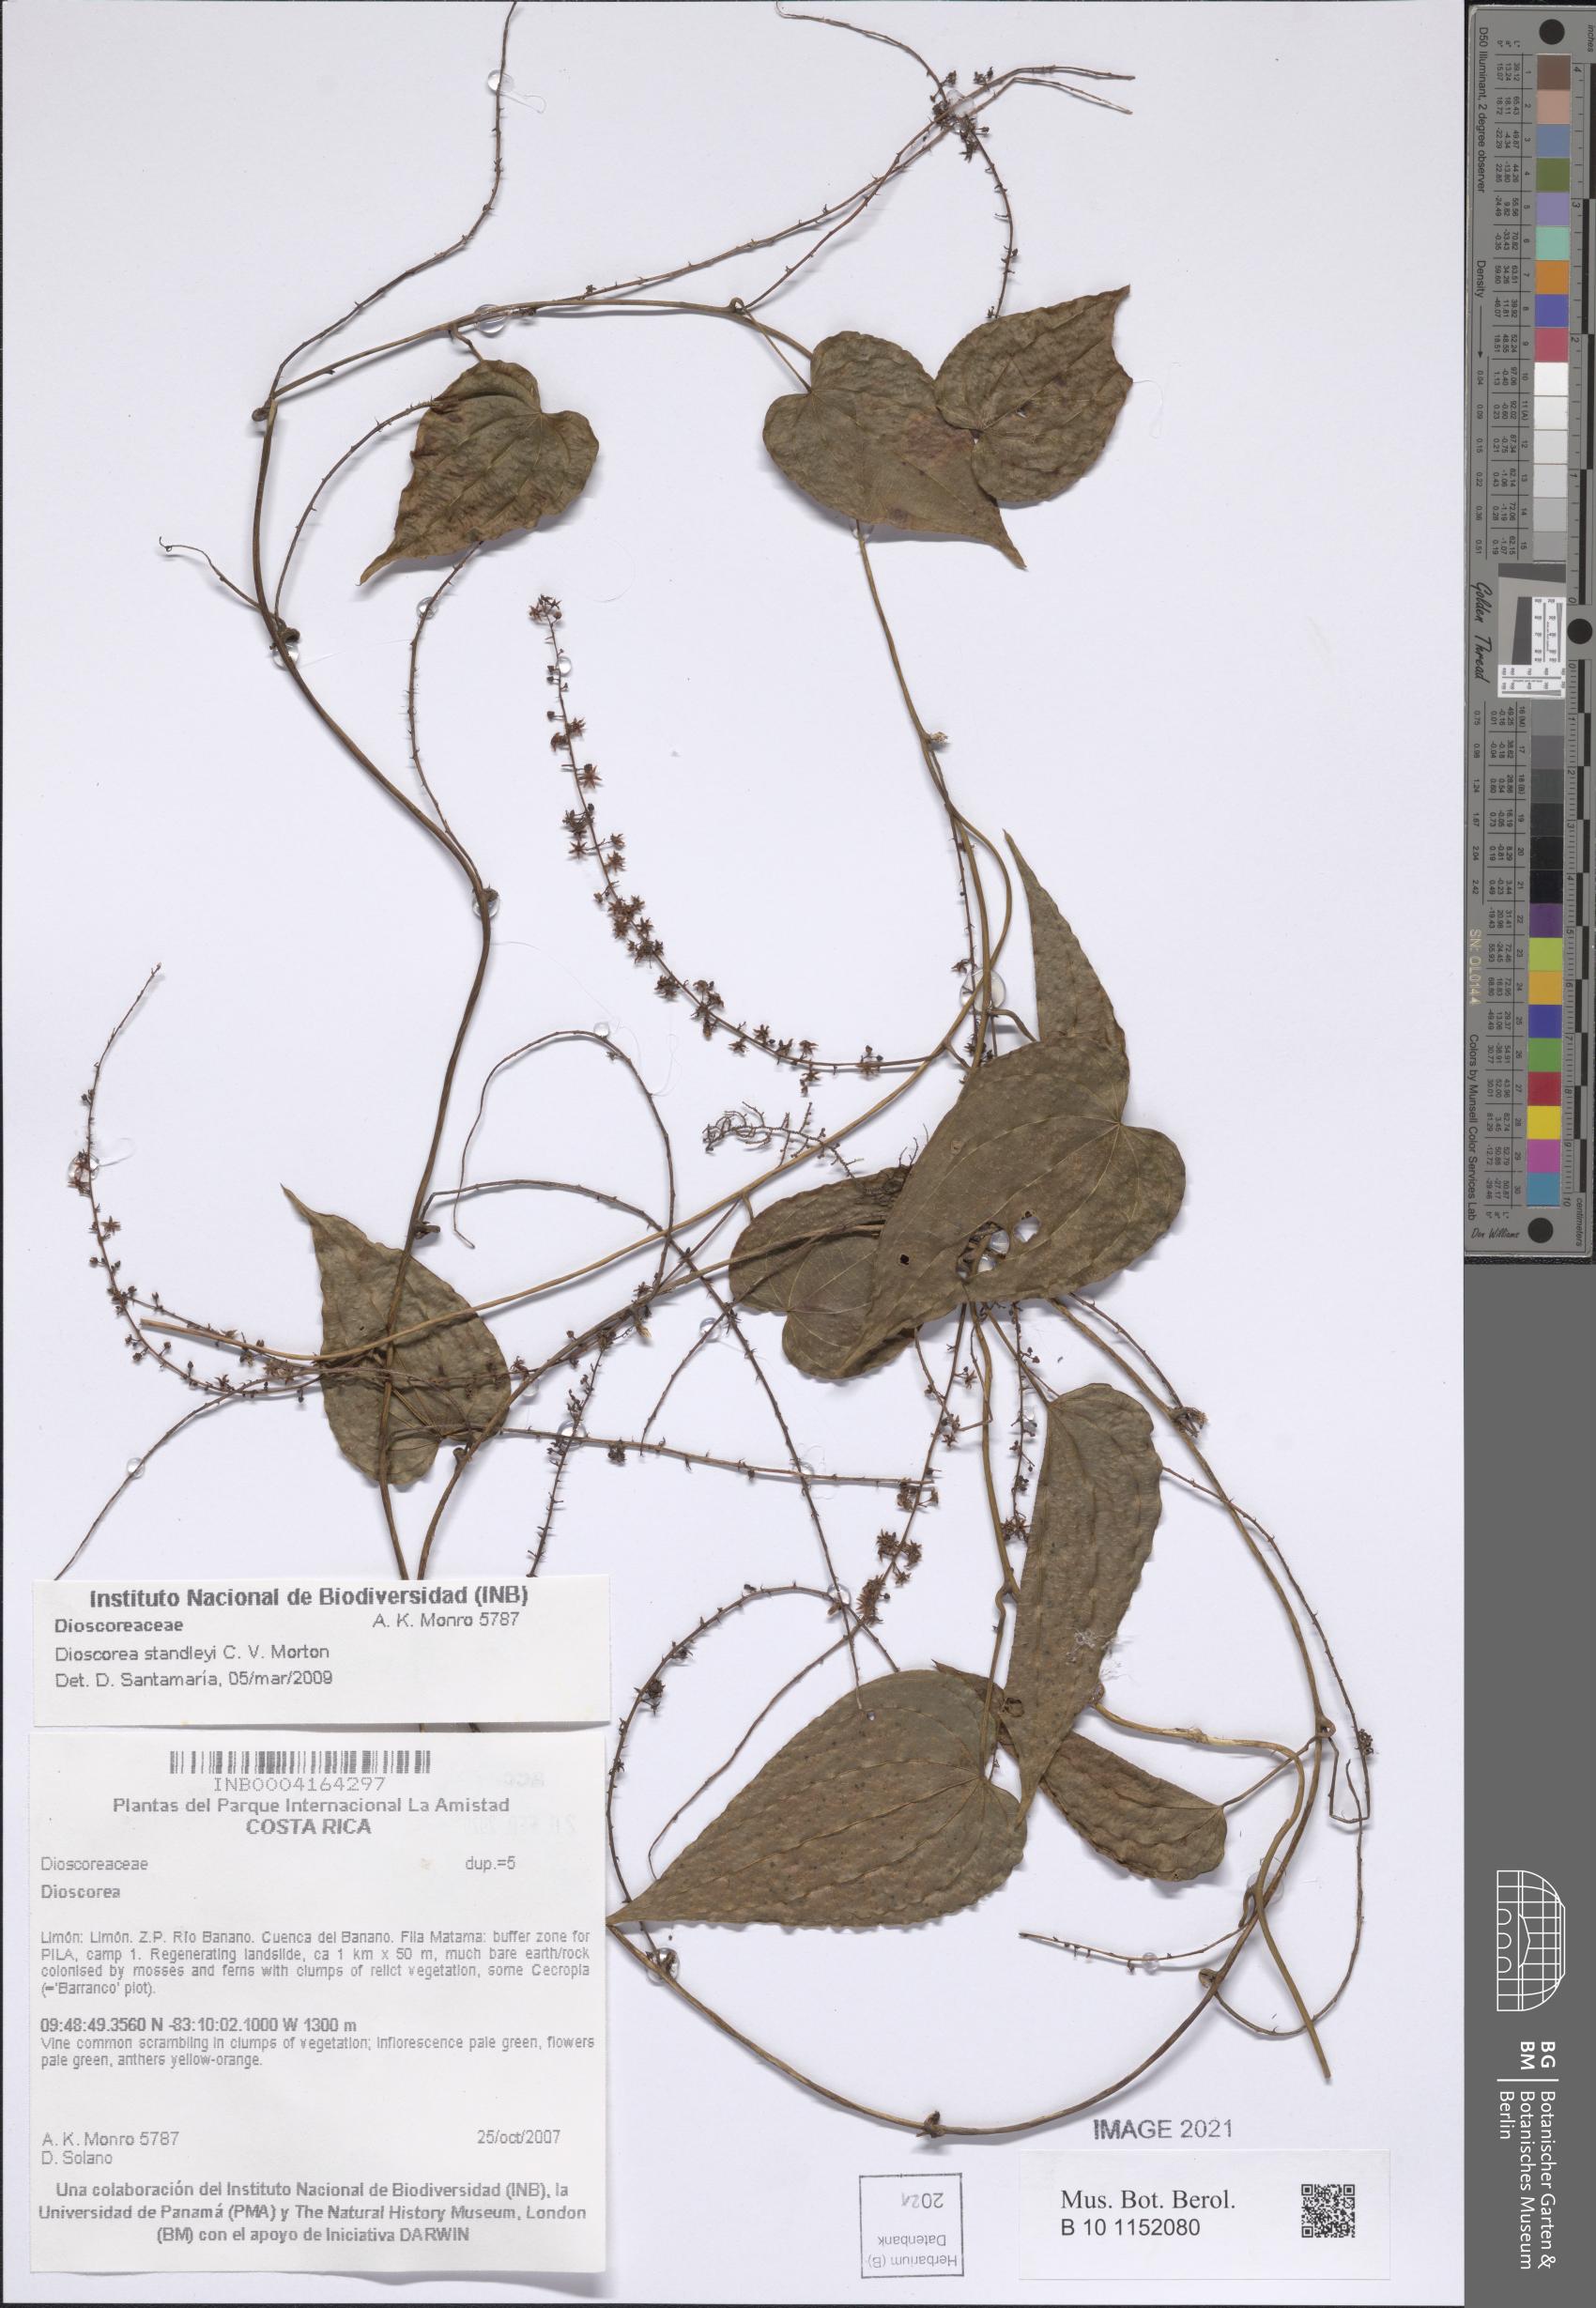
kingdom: Plantae
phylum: Tracheophyta
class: Liliopsida
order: Dioscoreales
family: Dioscoreaceae
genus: Dioscorea
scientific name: Dioscorea standleyi
